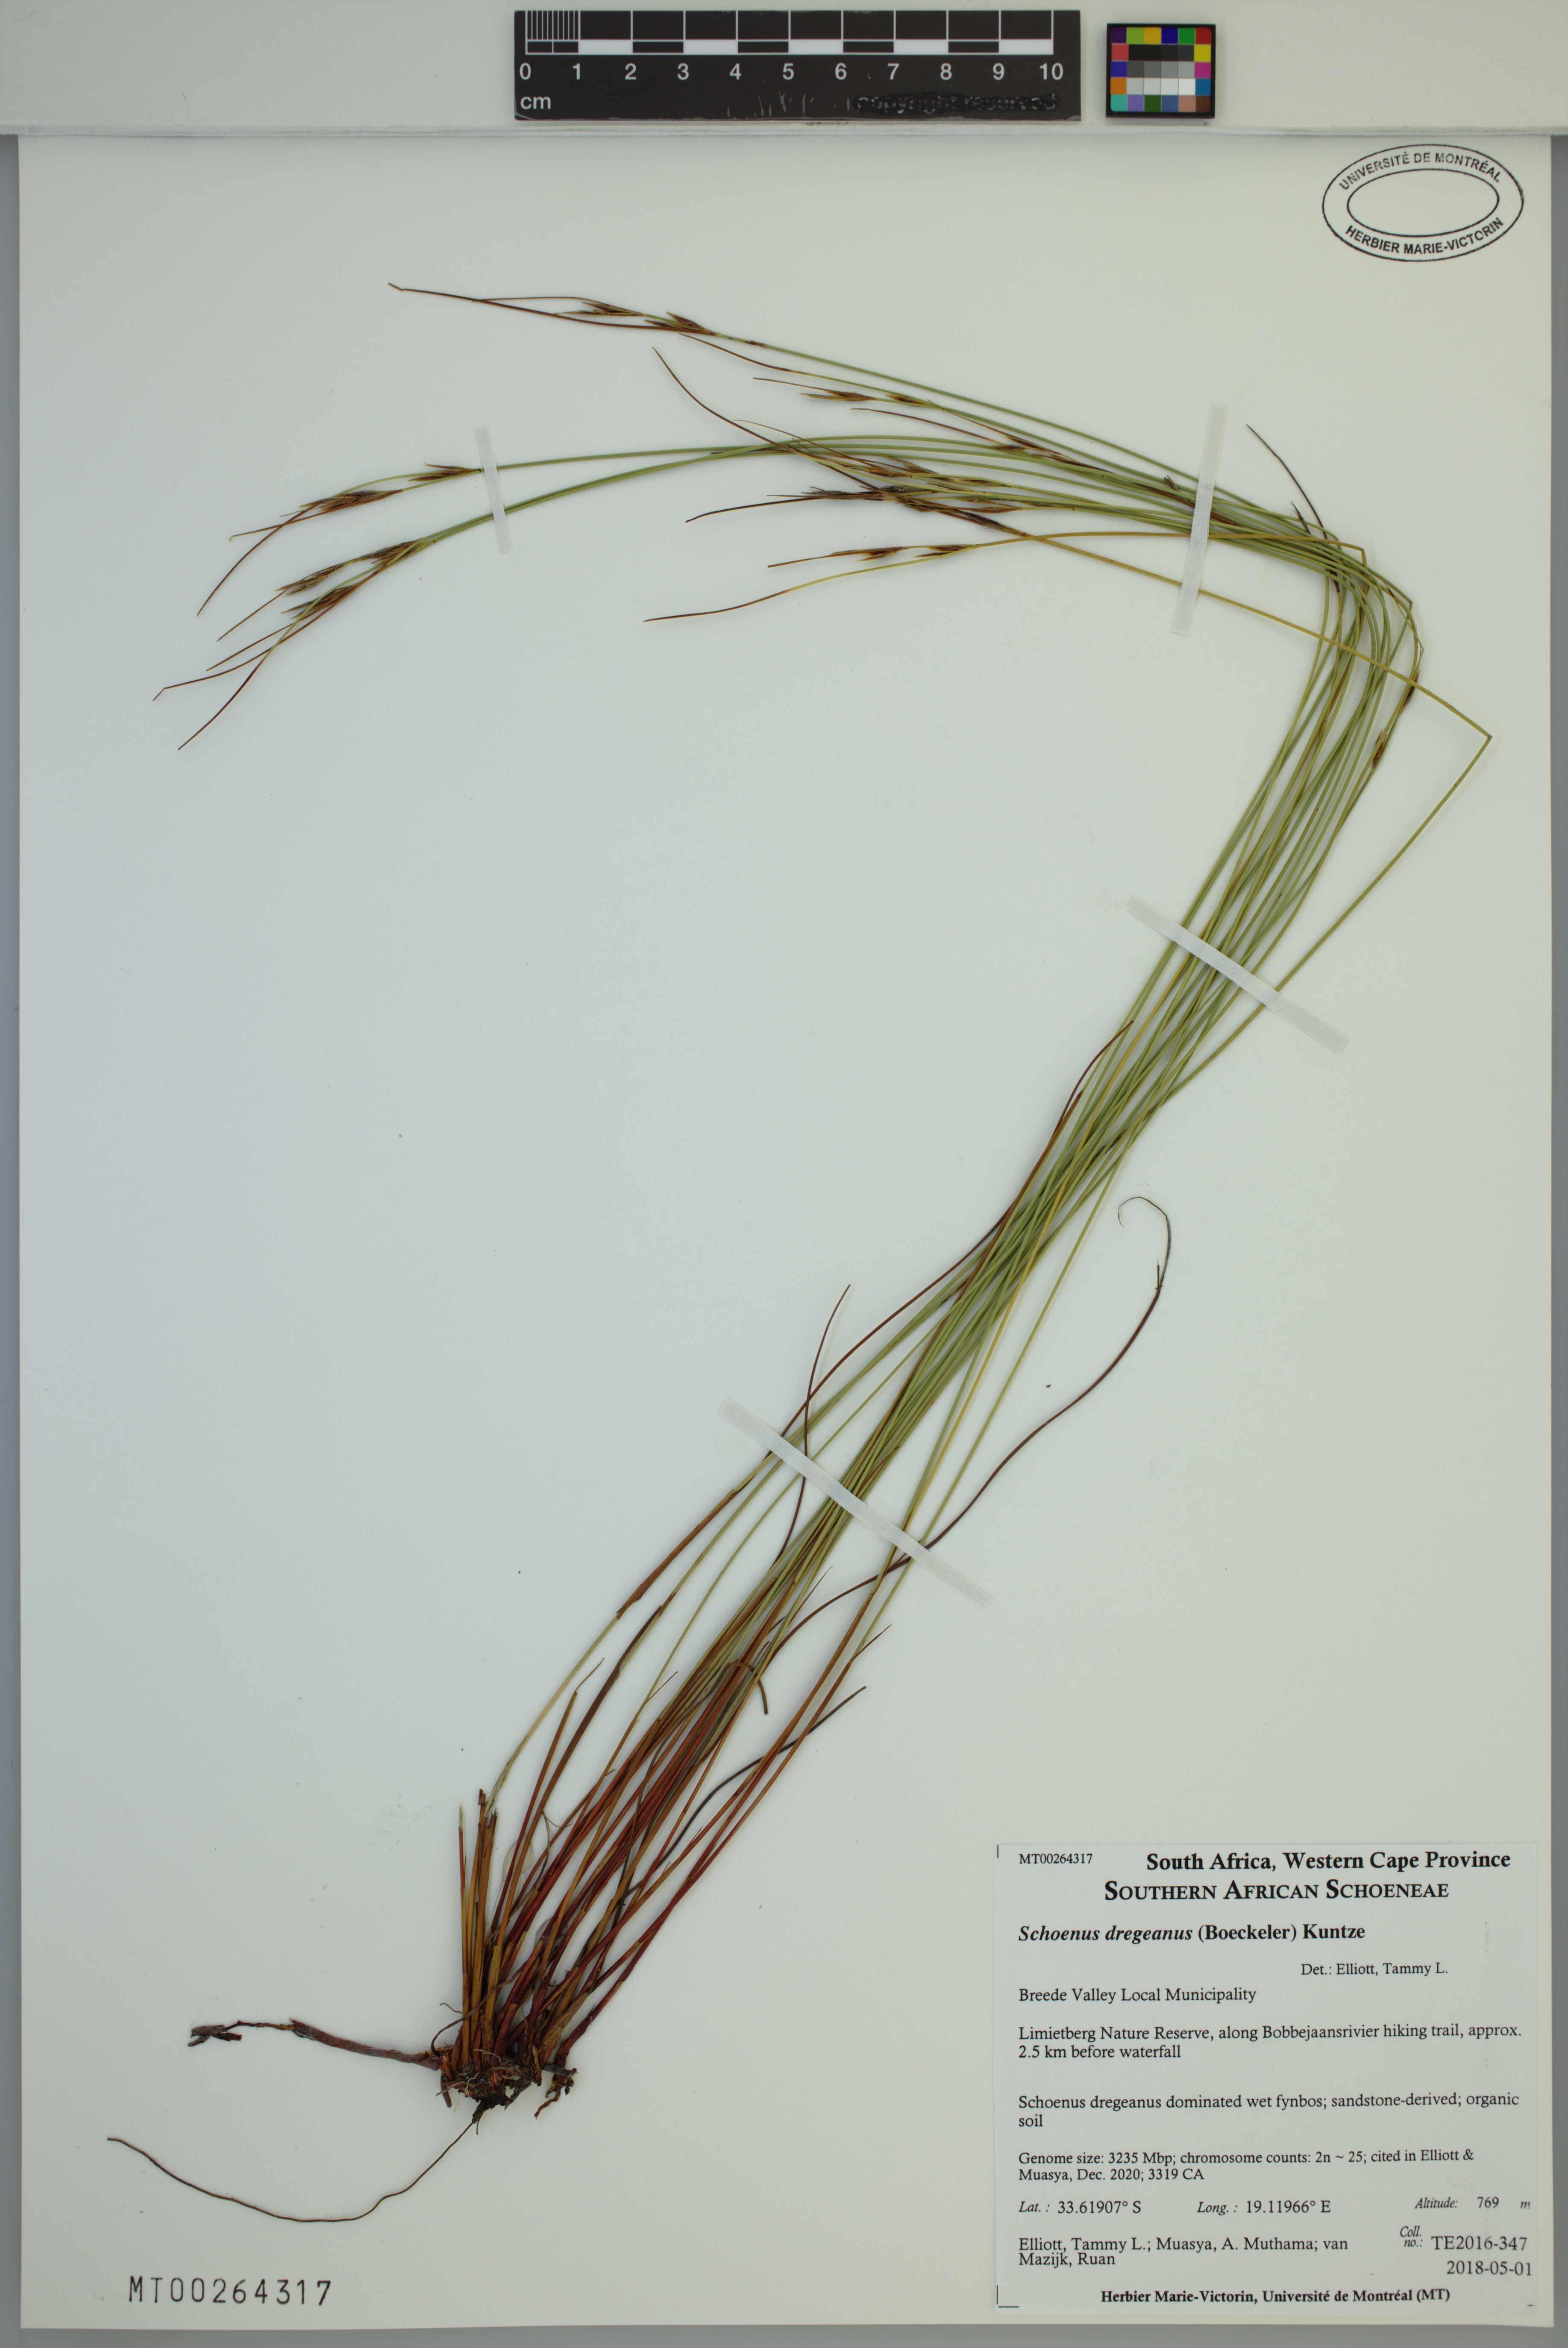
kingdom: Plantae
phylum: Tracheophyta
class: Liliopsida
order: Poales
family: Cyperaceae
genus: Schoenus
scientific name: Schoenus dregeanus
